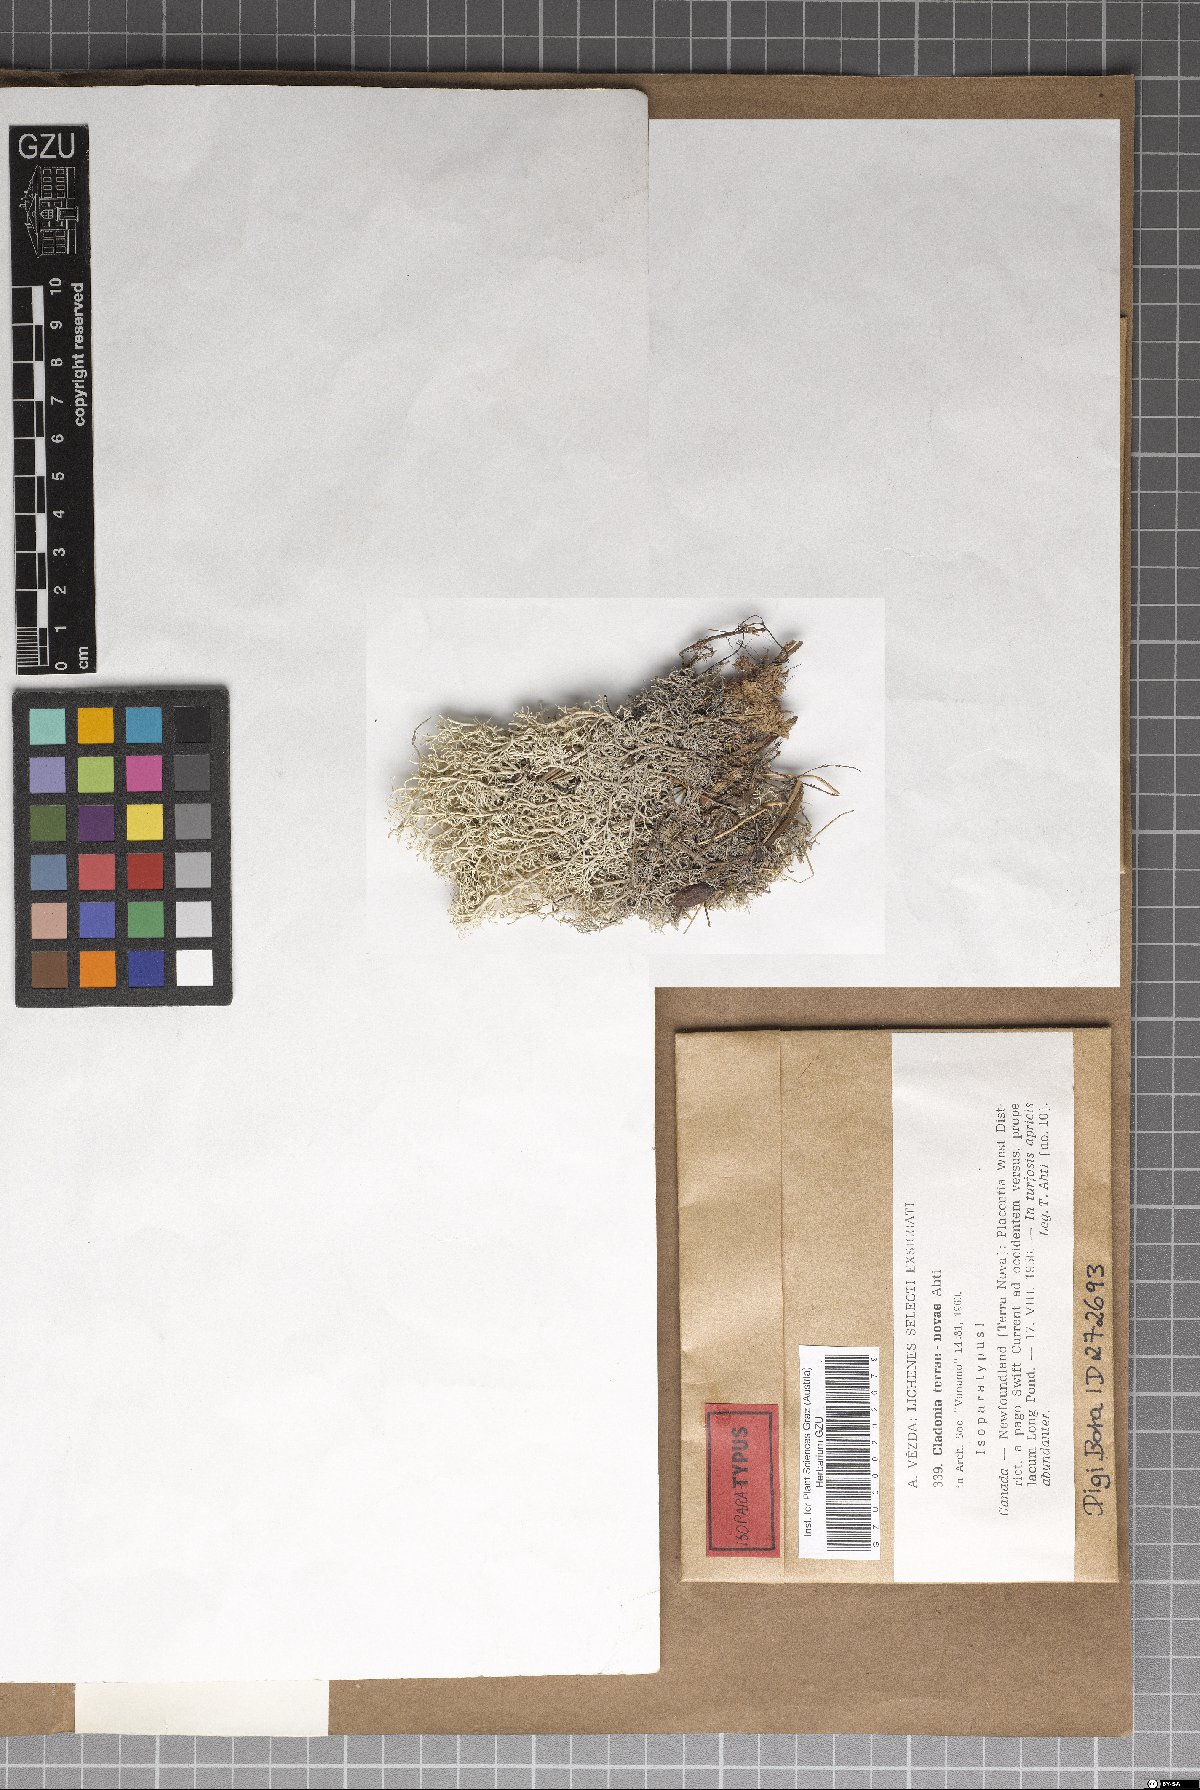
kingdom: Fungi
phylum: Ascomycota
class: Lecanoromycetes
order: Lecanorales
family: Cladoniaceae
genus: Cladonia
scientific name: Cladonia terrae-novae
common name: Reindeer lichen
